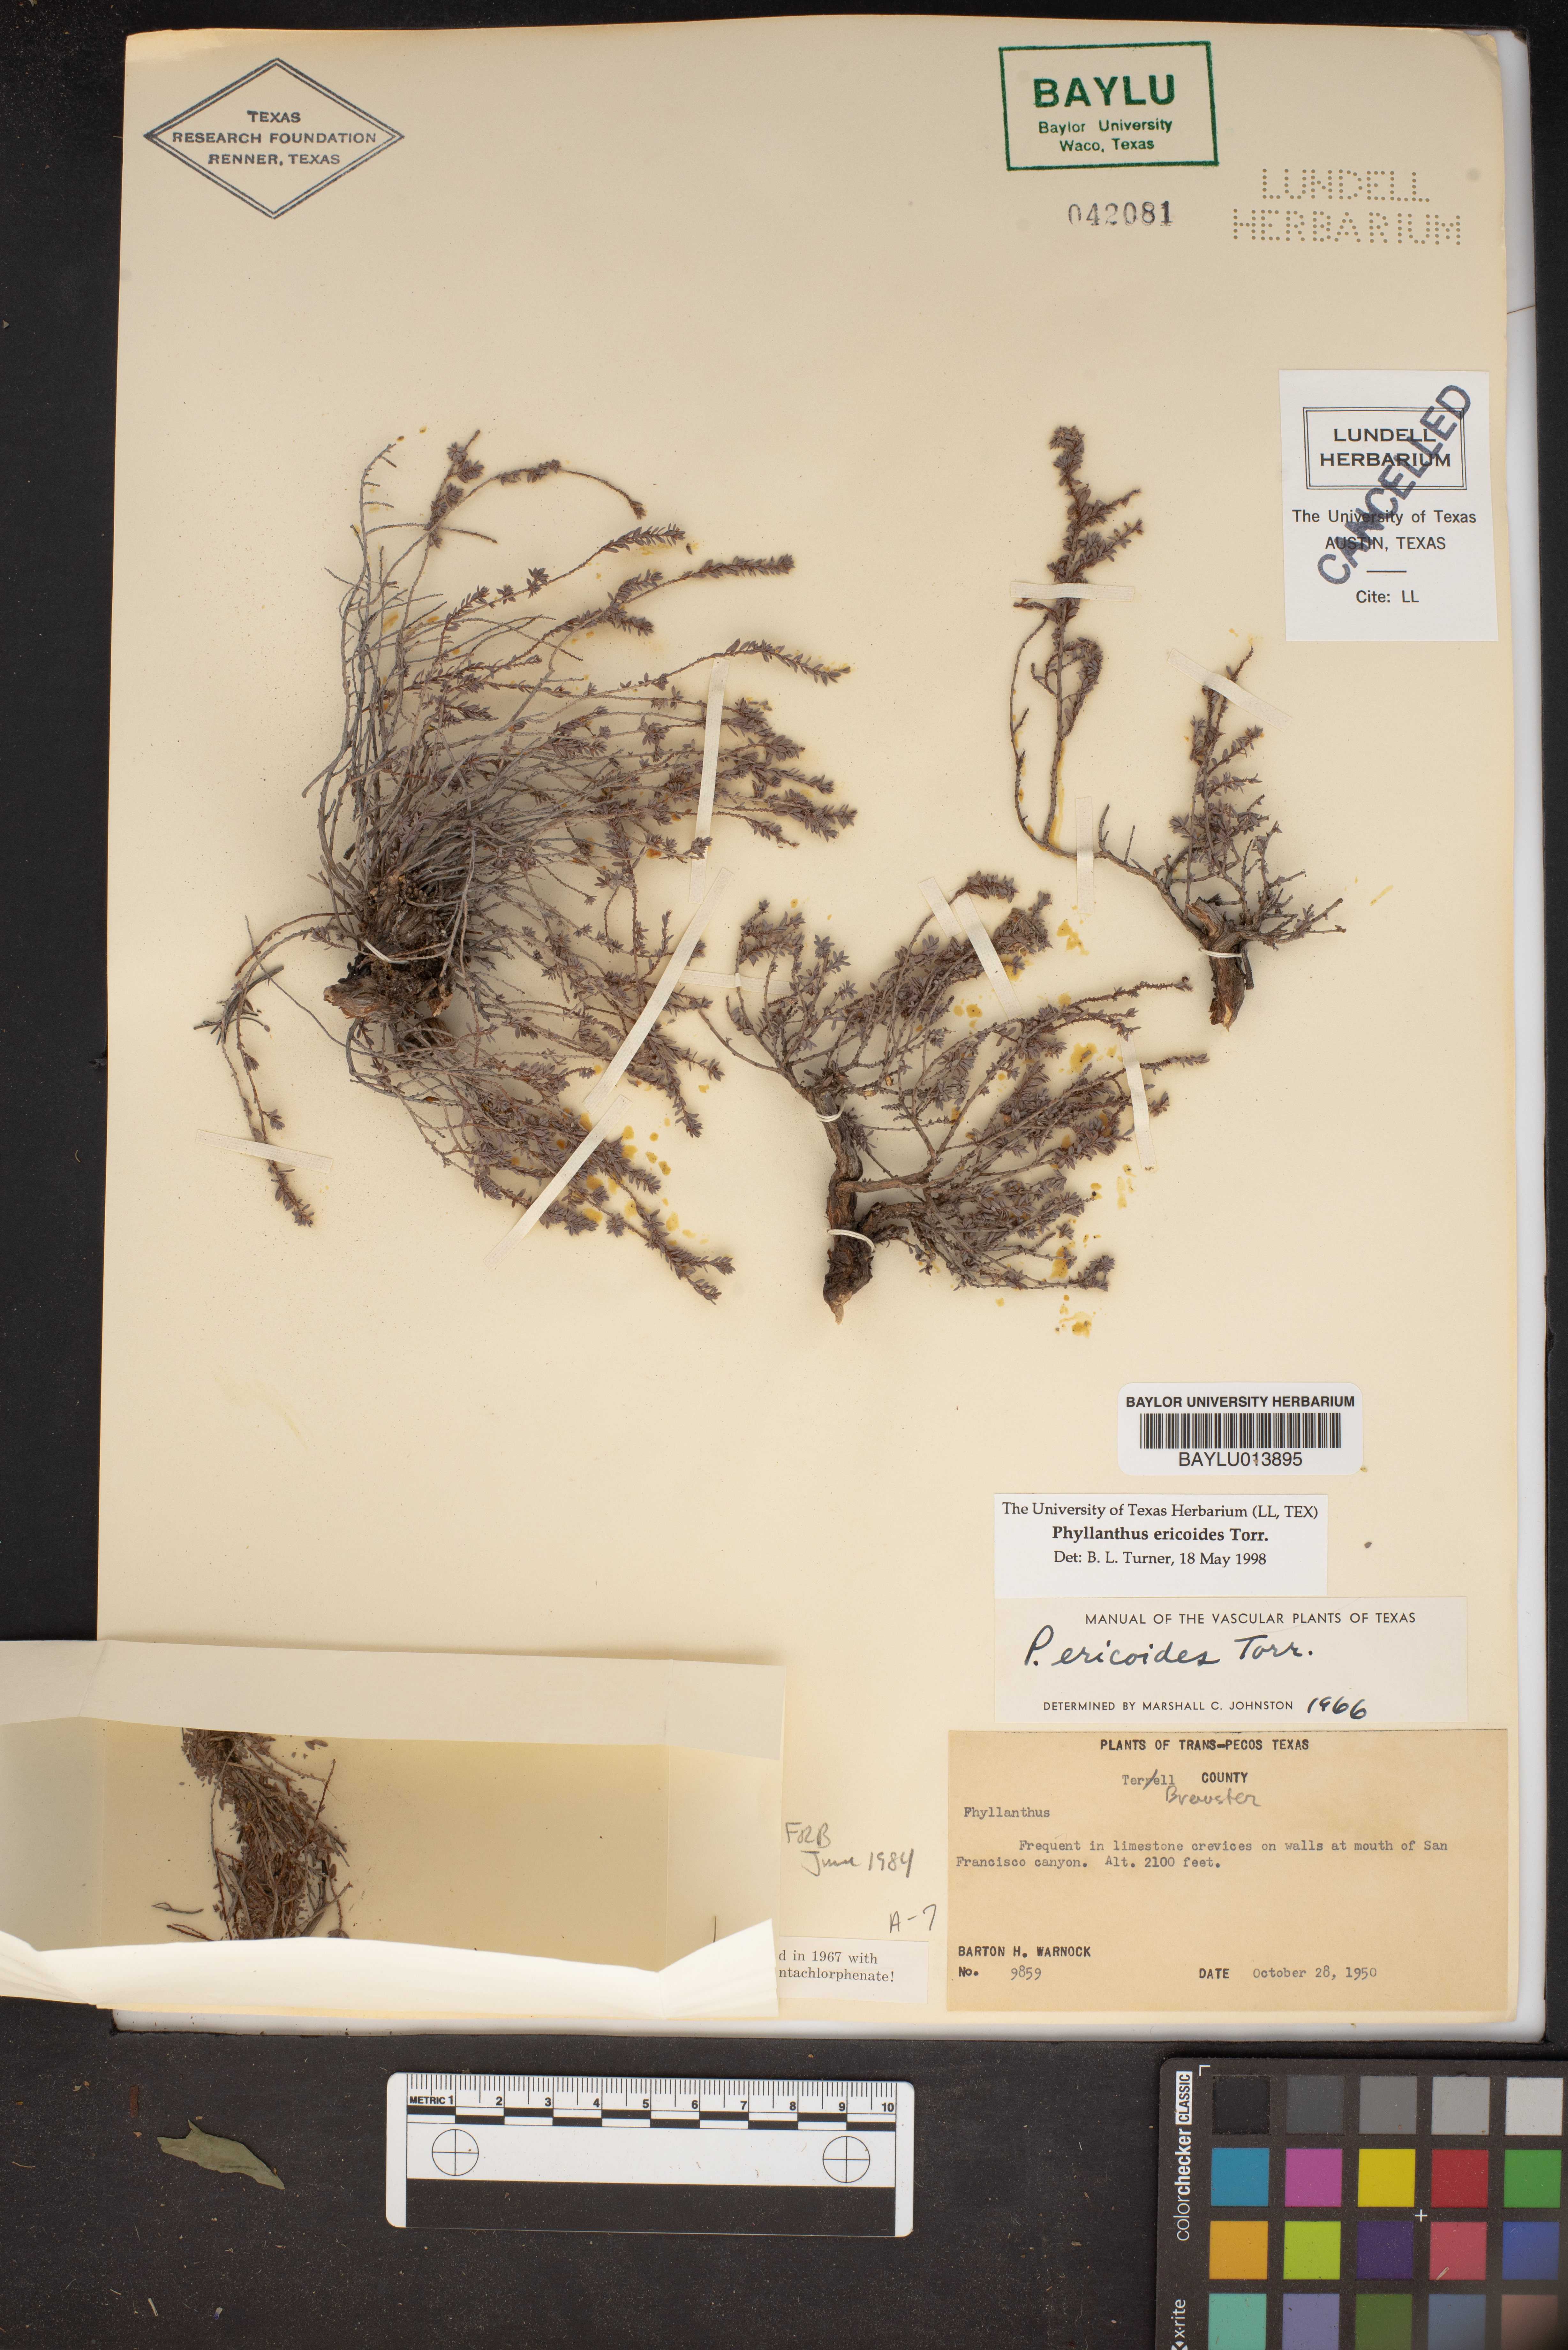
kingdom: Plantae
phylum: Tracheophyta
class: Magnoliopsida
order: Malpighiales
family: Phyllanthaceae
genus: Phyllanthus
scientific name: Phyllanthus ericoides
